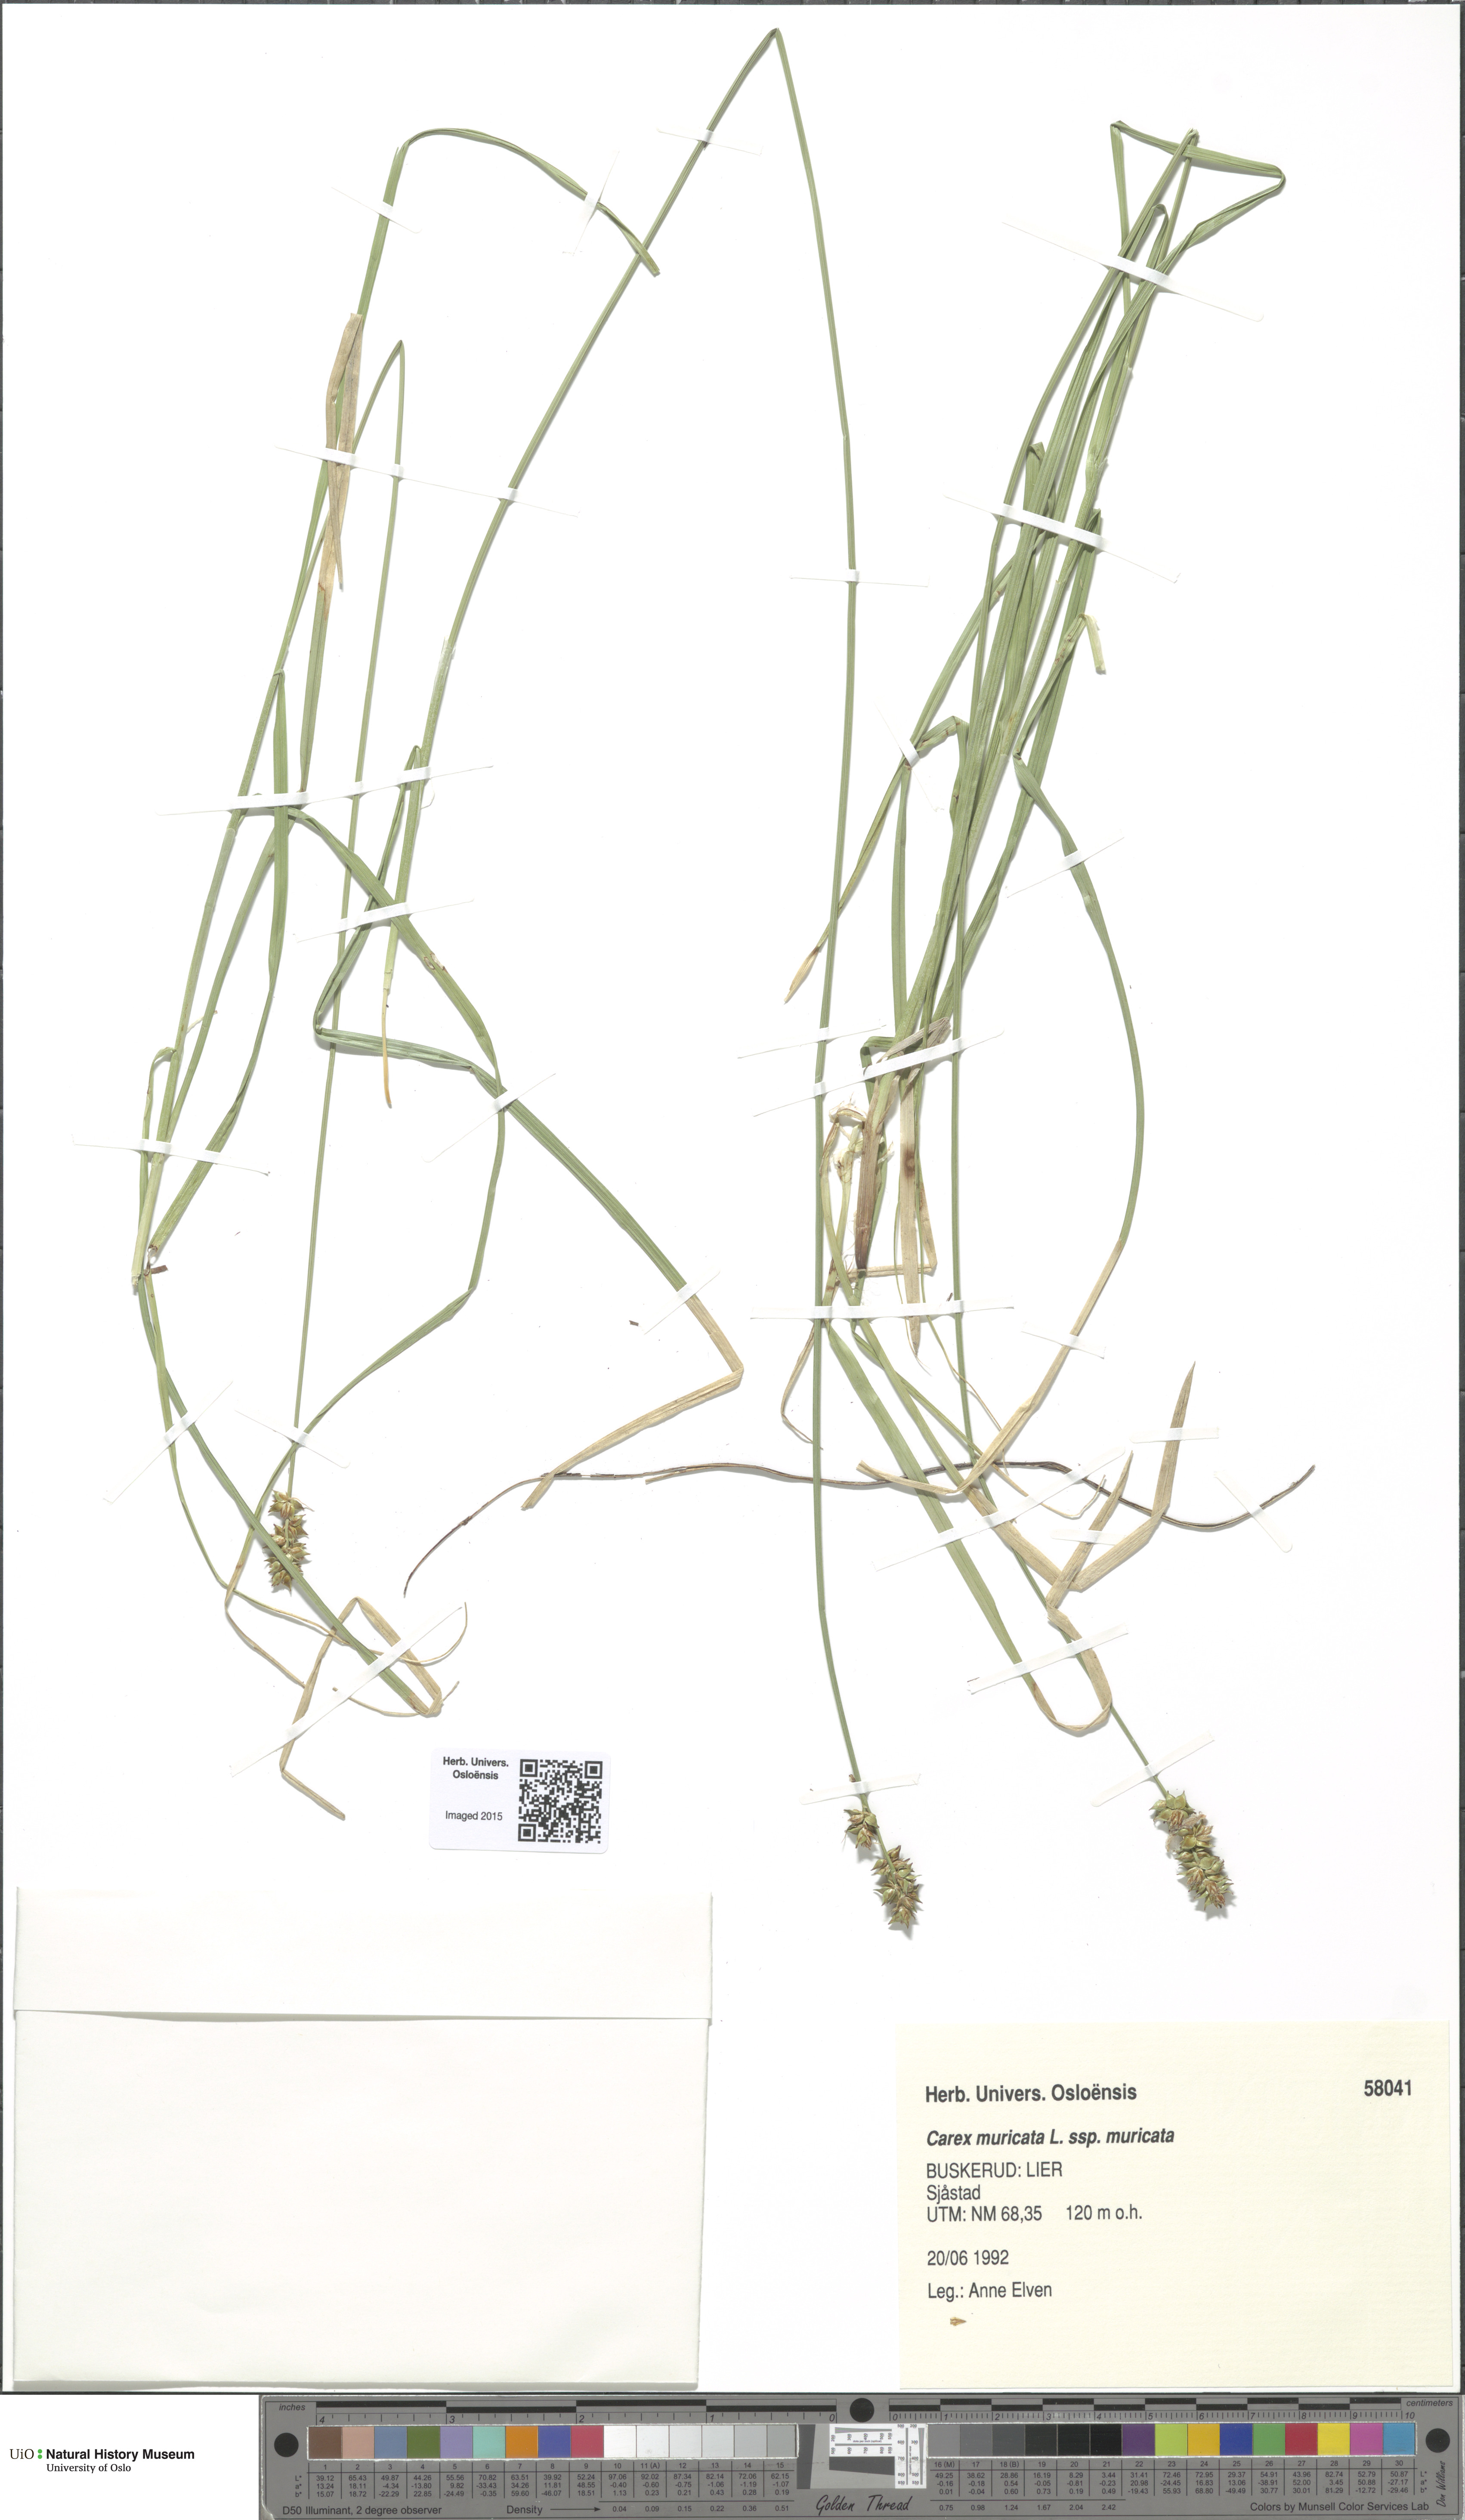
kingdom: Plantae
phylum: Tracheophyta
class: Liliopsida
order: Poales
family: Cyperaceae
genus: Carex
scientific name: Carex muricata
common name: Rough sedge
